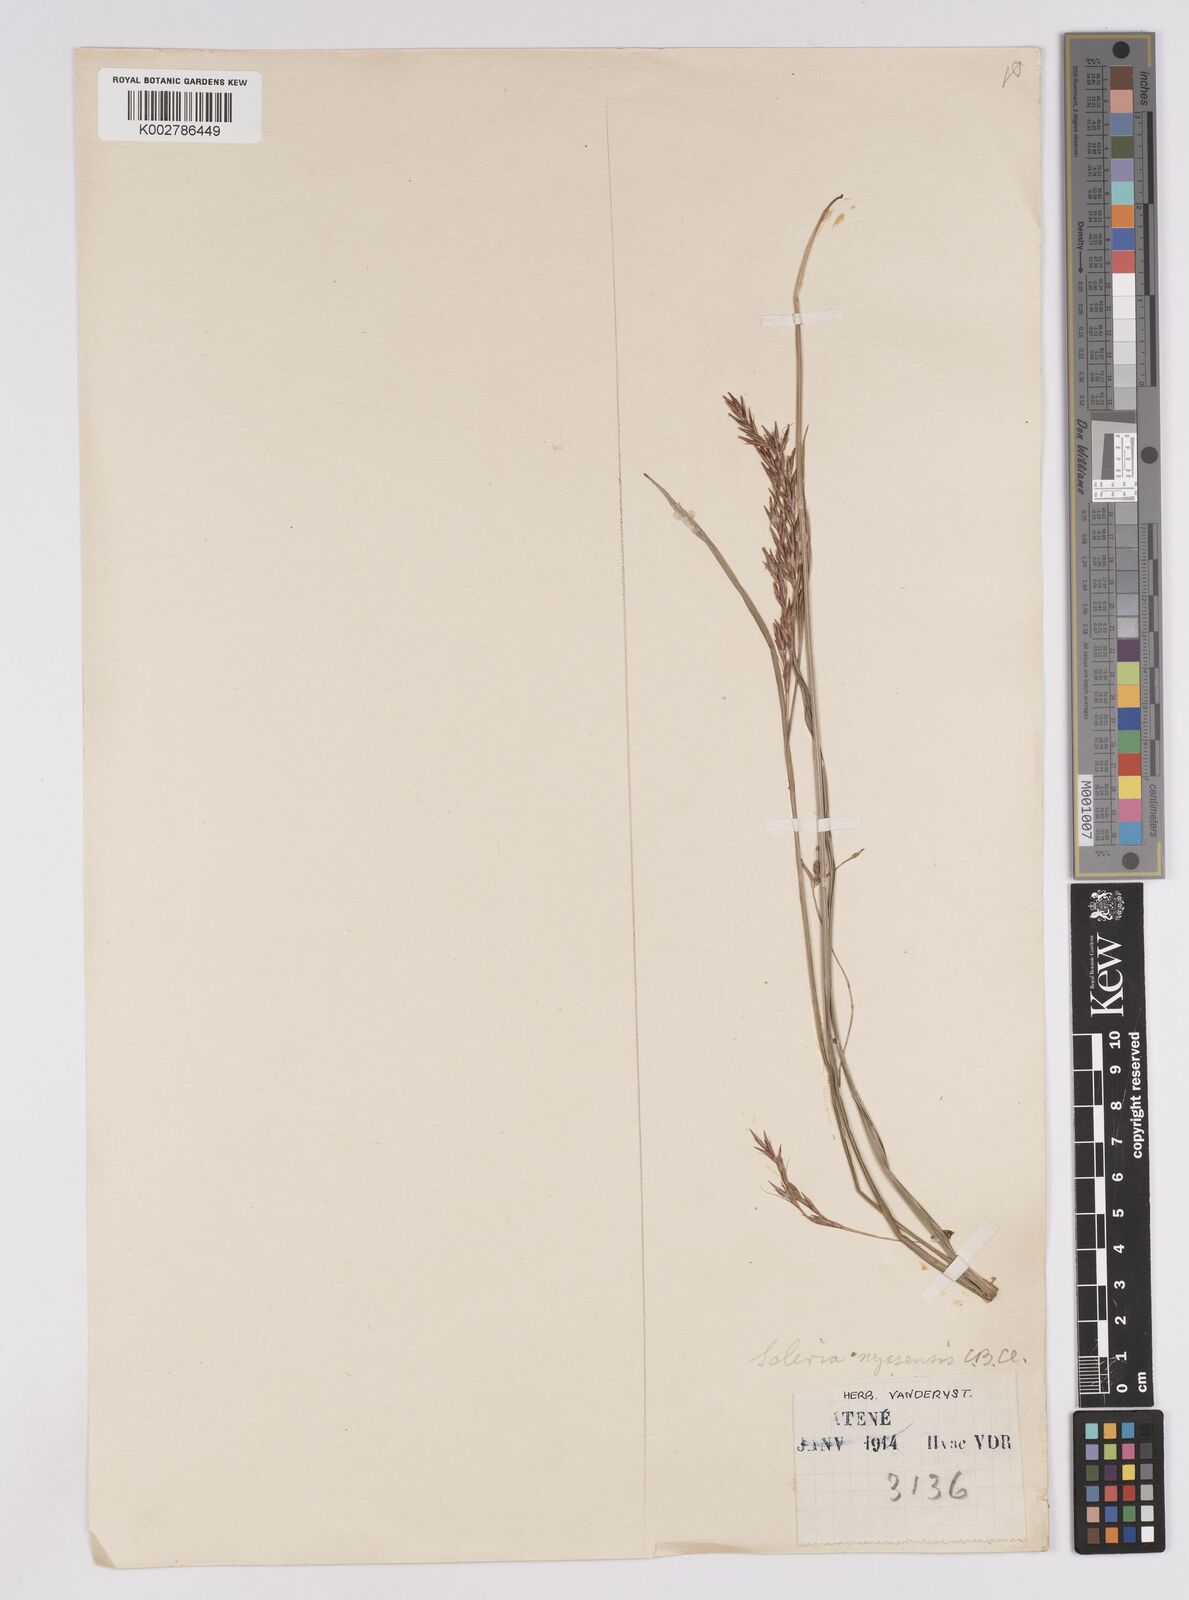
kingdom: Plantae
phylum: Tracheophyta
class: Liliopsida
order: Poales
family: Cyperaceae
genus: Scleria
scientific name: Scleria achtenii
